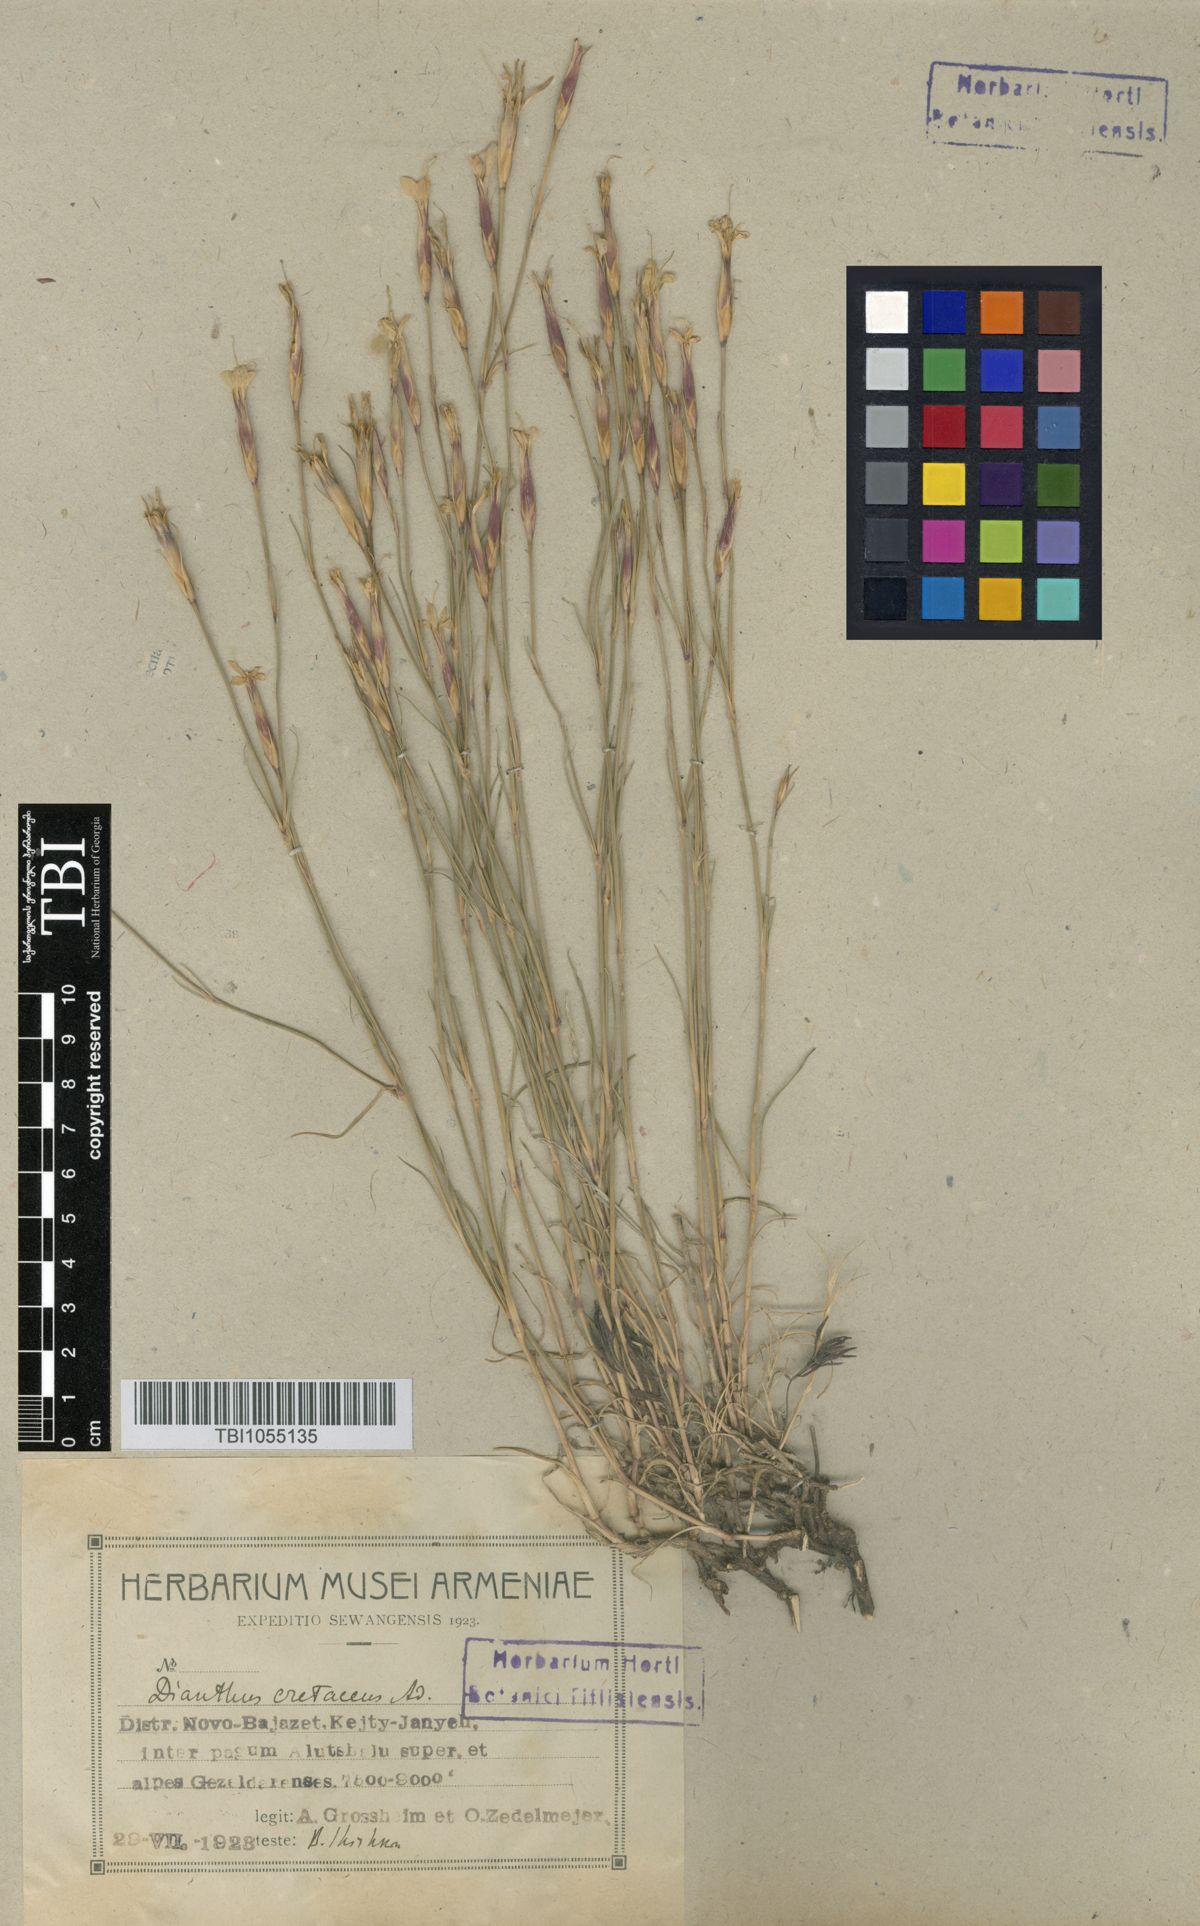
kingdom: Plantae
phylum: Tracheophyta
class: Magnoliopsida
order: Caryophyllales
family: Caryophyllaceae
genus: Dianthus
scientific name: Dianthus cretaceus
